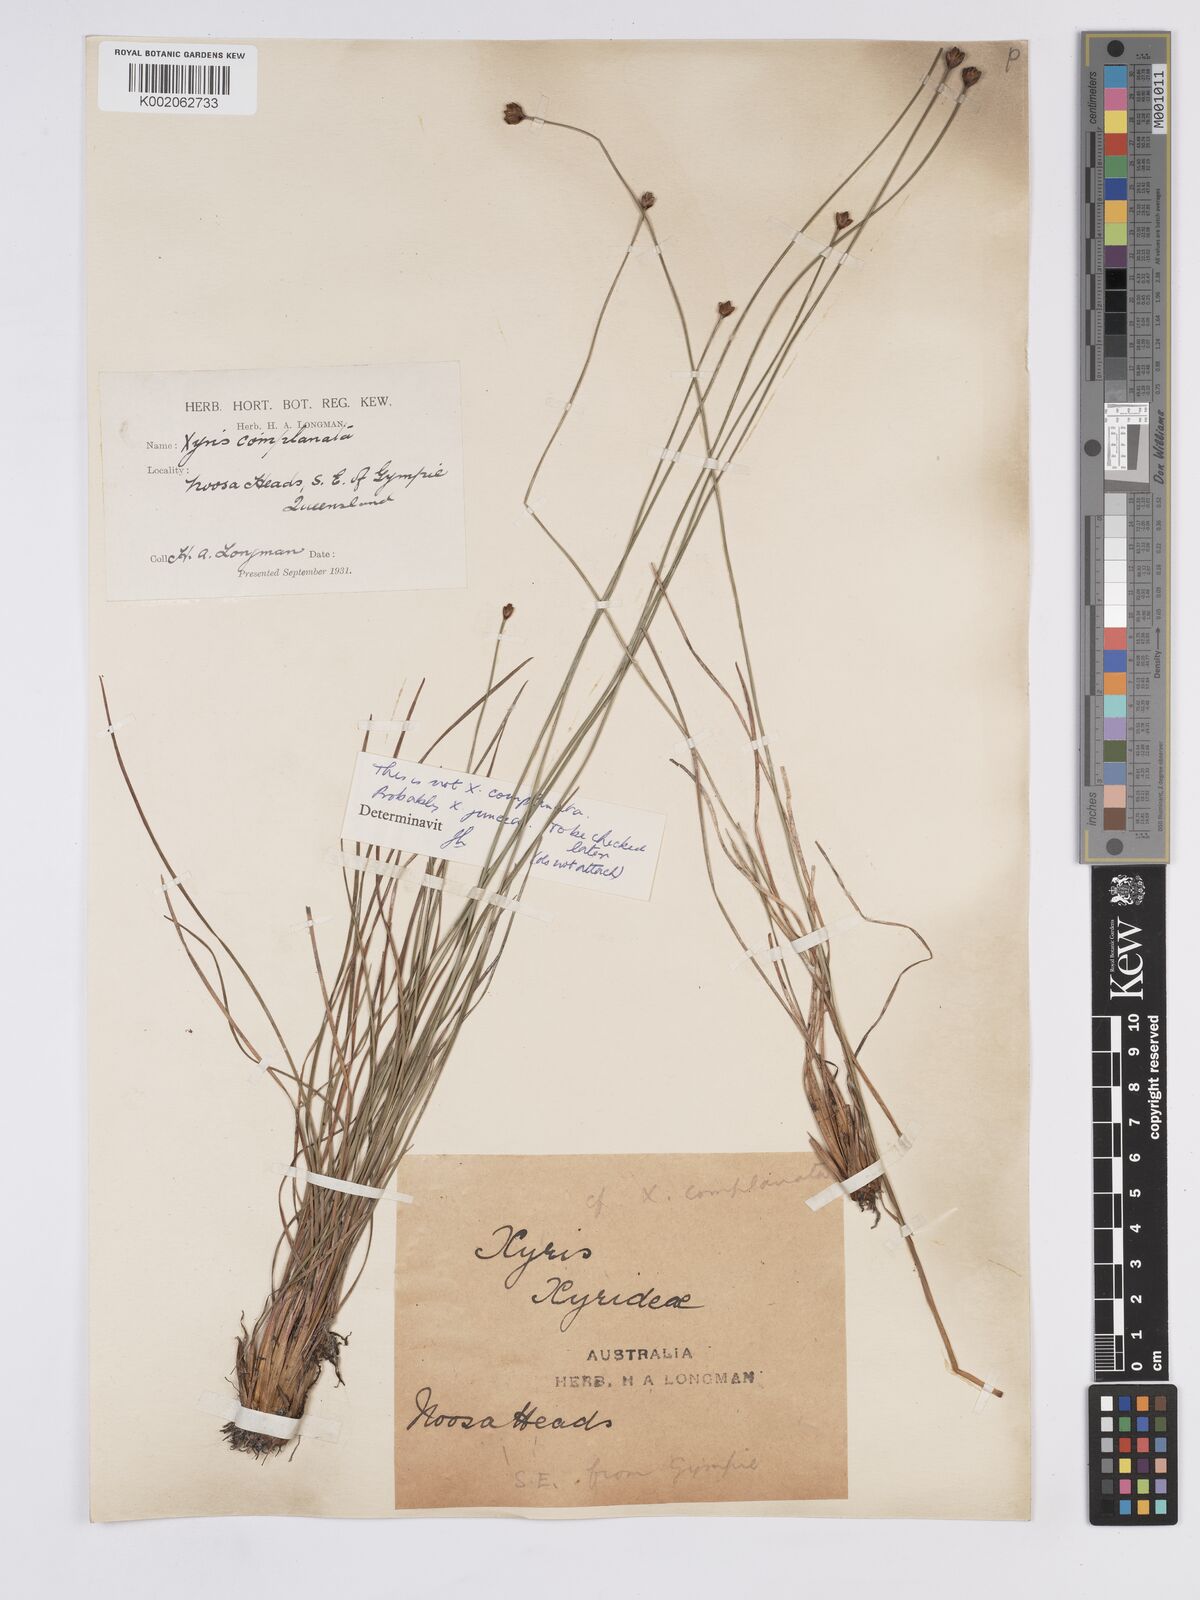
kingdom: Plantae
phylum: Tracheophyta
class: Liliopsida
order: Poales
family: Xyridaceae
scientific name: Xyridaceae
